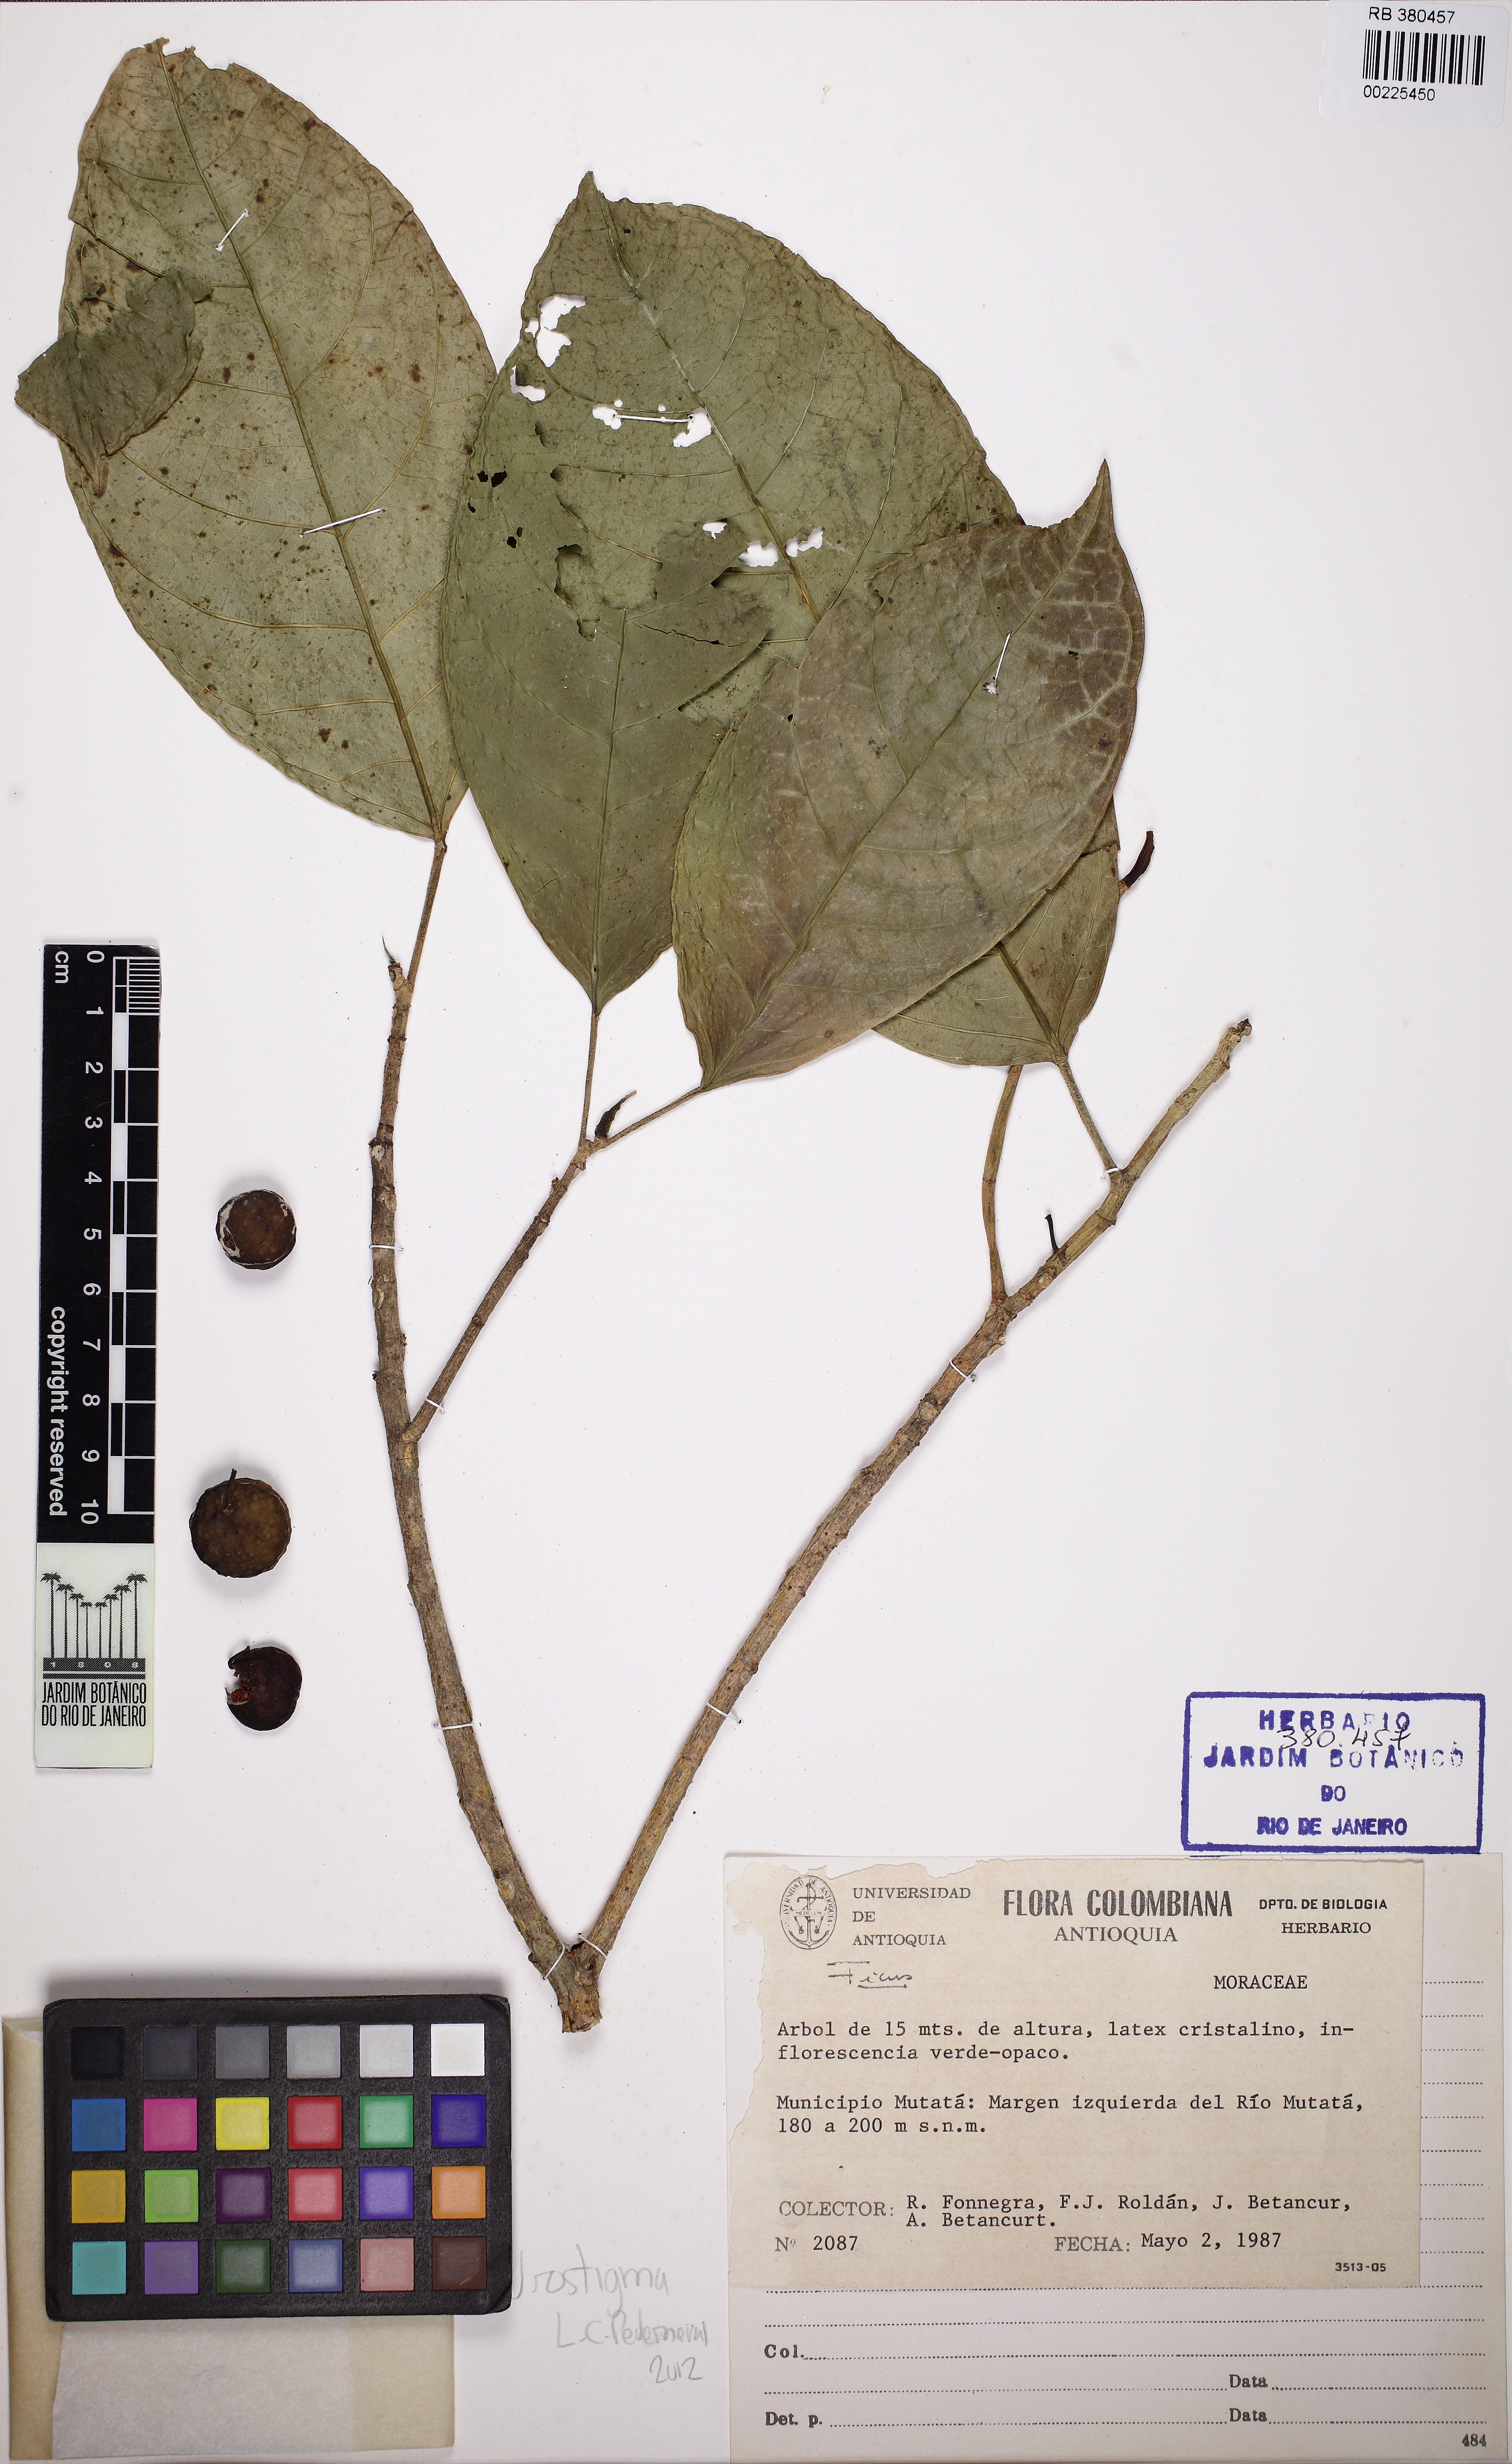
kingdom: Plantae
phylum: Tracheophyta
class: Magnoliopsida
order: Rosales
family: Moraceae
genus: Ficus
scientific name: Ficus maxima
